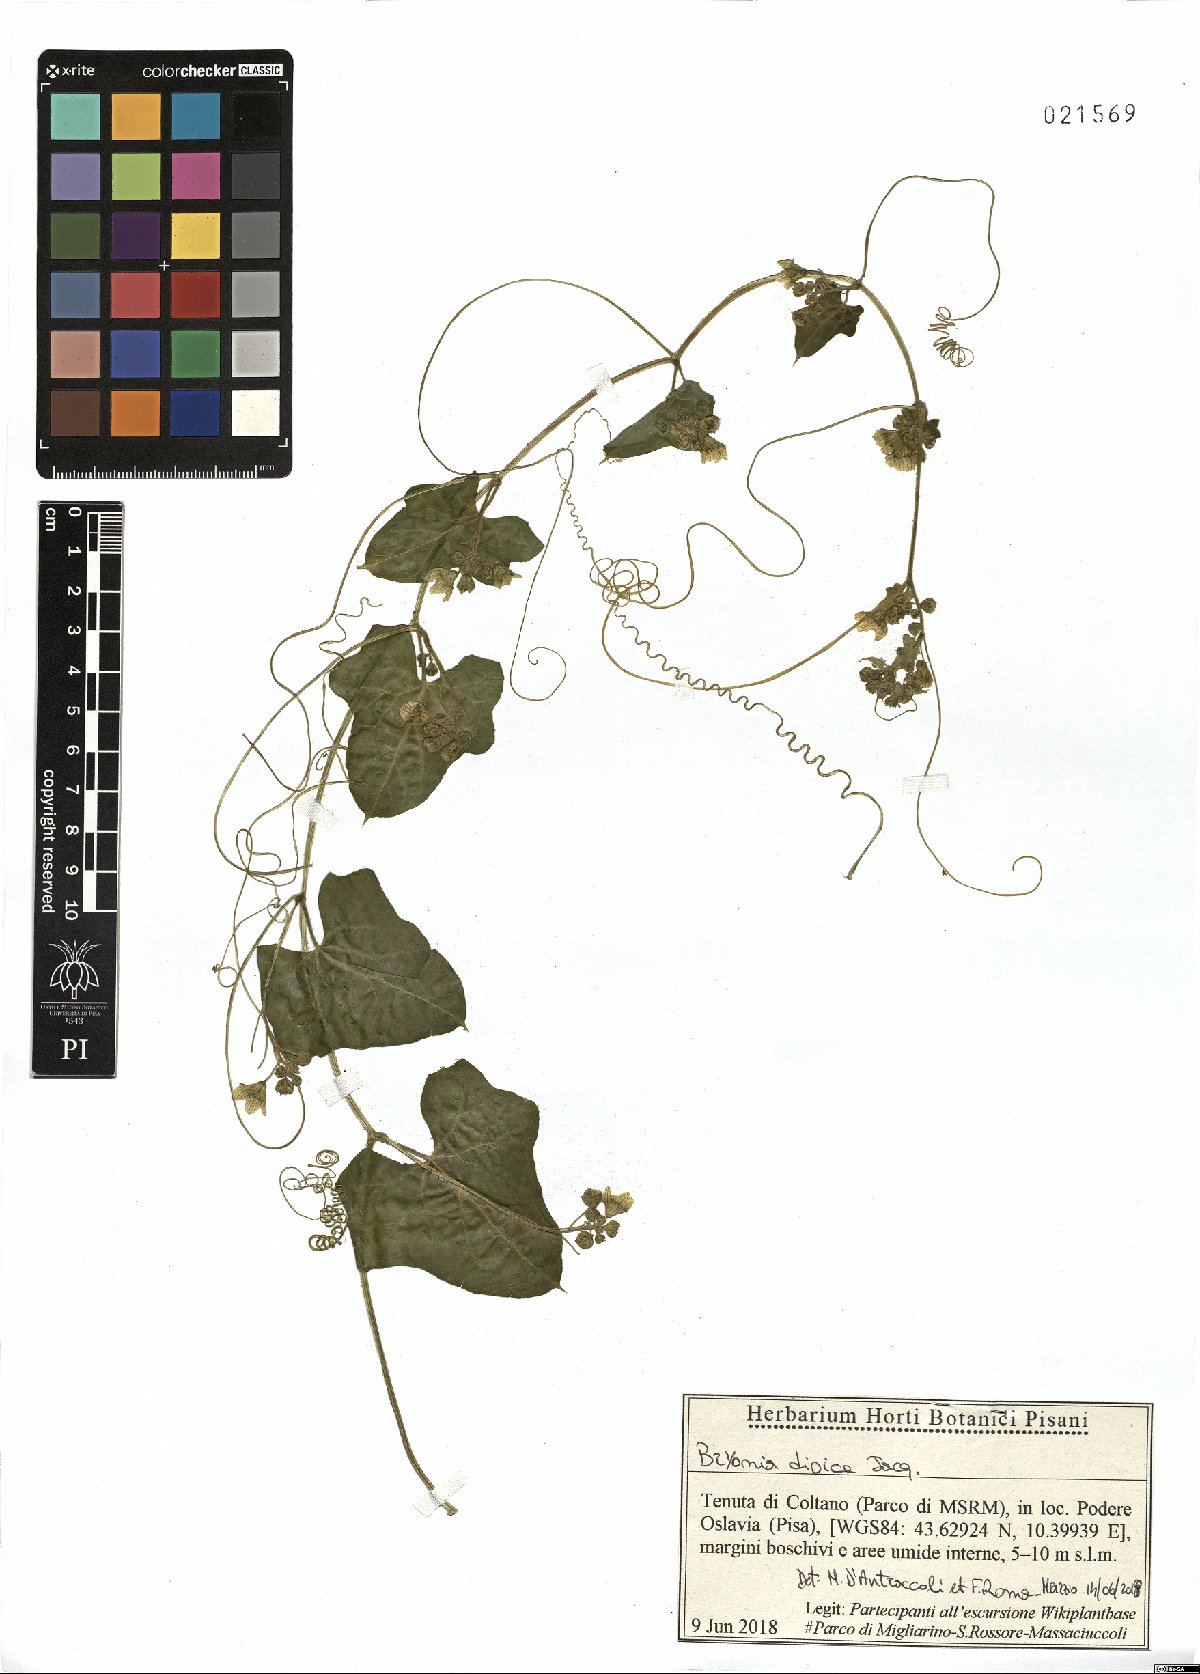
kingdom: Plantae
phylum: Tracheophyta
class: Magnoliopsida
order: Cucurbitales
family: Cucurbitaceae
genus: Bryonia
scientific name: Bryonia dioica
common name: White bryony
